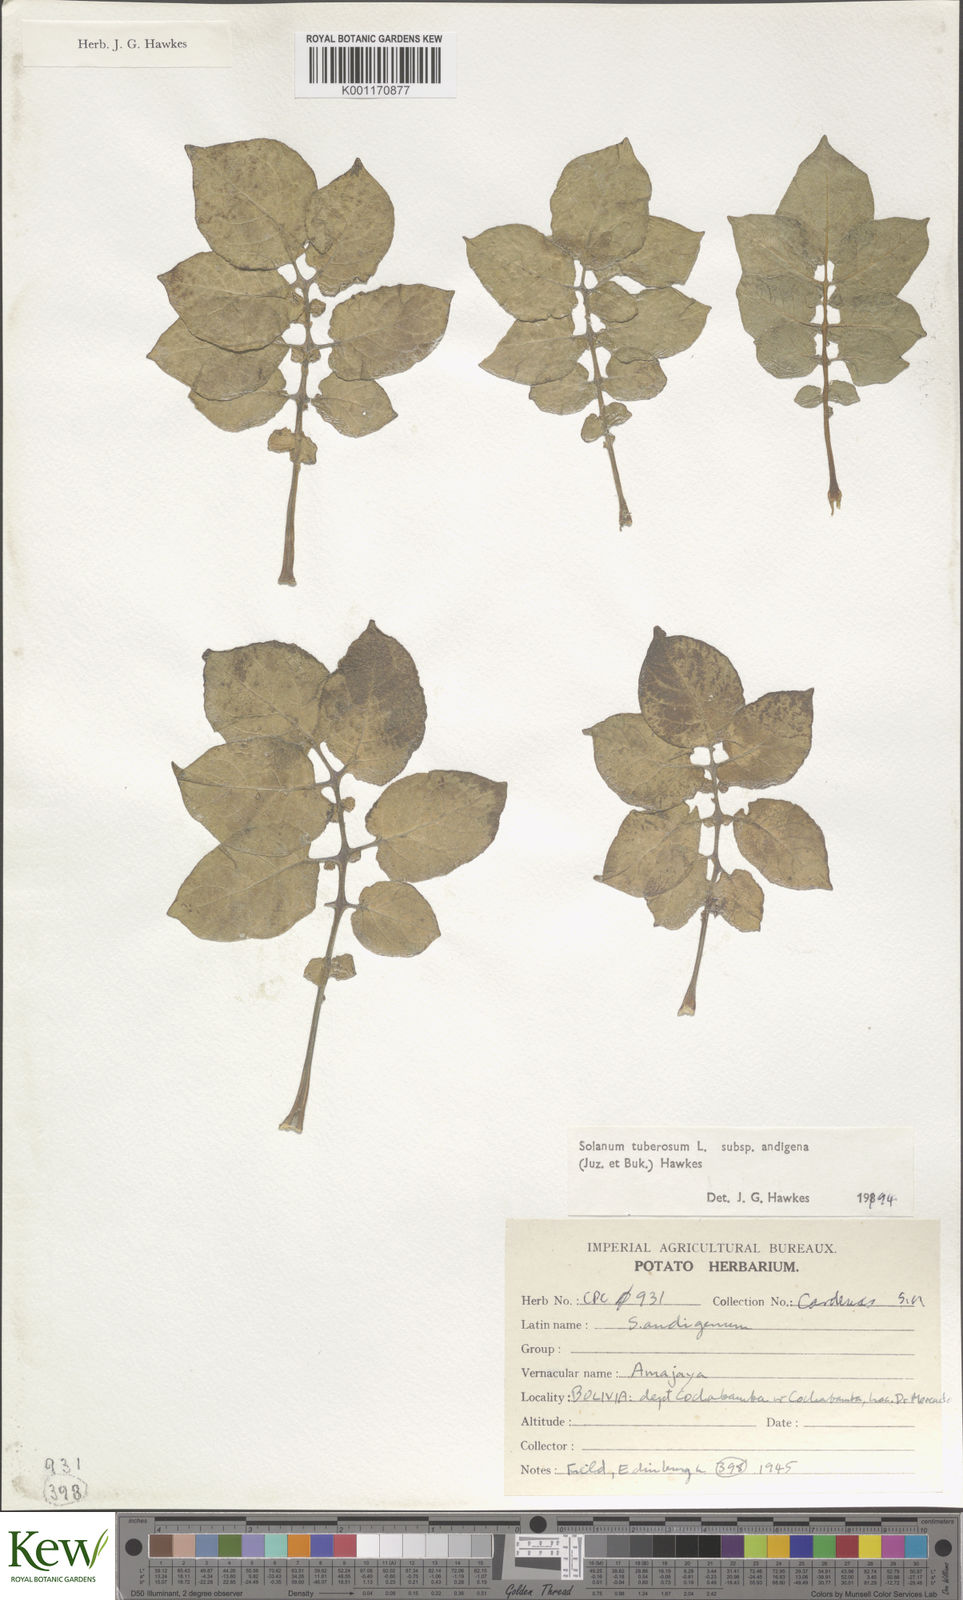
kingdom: Plantae
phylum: Tracheophyta
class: Magnoliopsida
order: Solanales
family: Solanaceae
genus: Solanum
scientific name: Solanum tuberosum
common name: Potato
